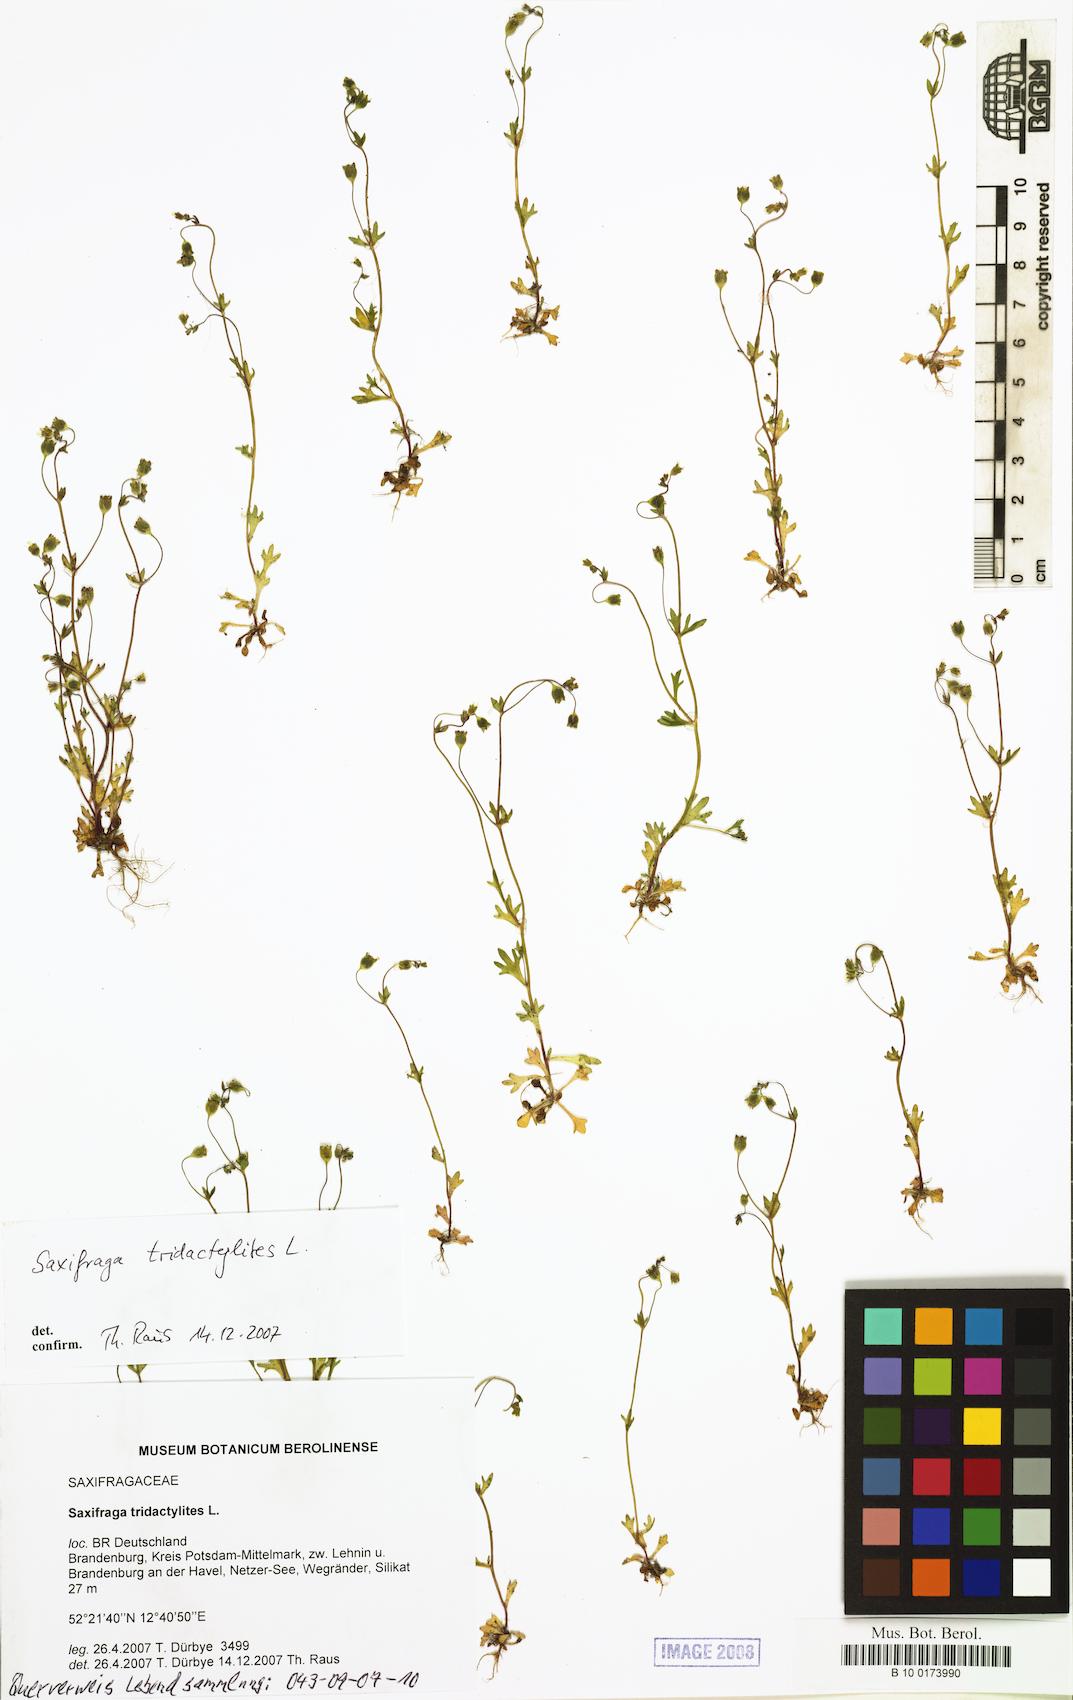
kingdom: Plantae
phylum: Tracheophyta
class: Magnoliopsida
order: Saxifragales
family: Saxifragaceae
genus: Saxifraga
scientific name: Saxifraga tridactylites
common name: Rue-leaved saxifrage
